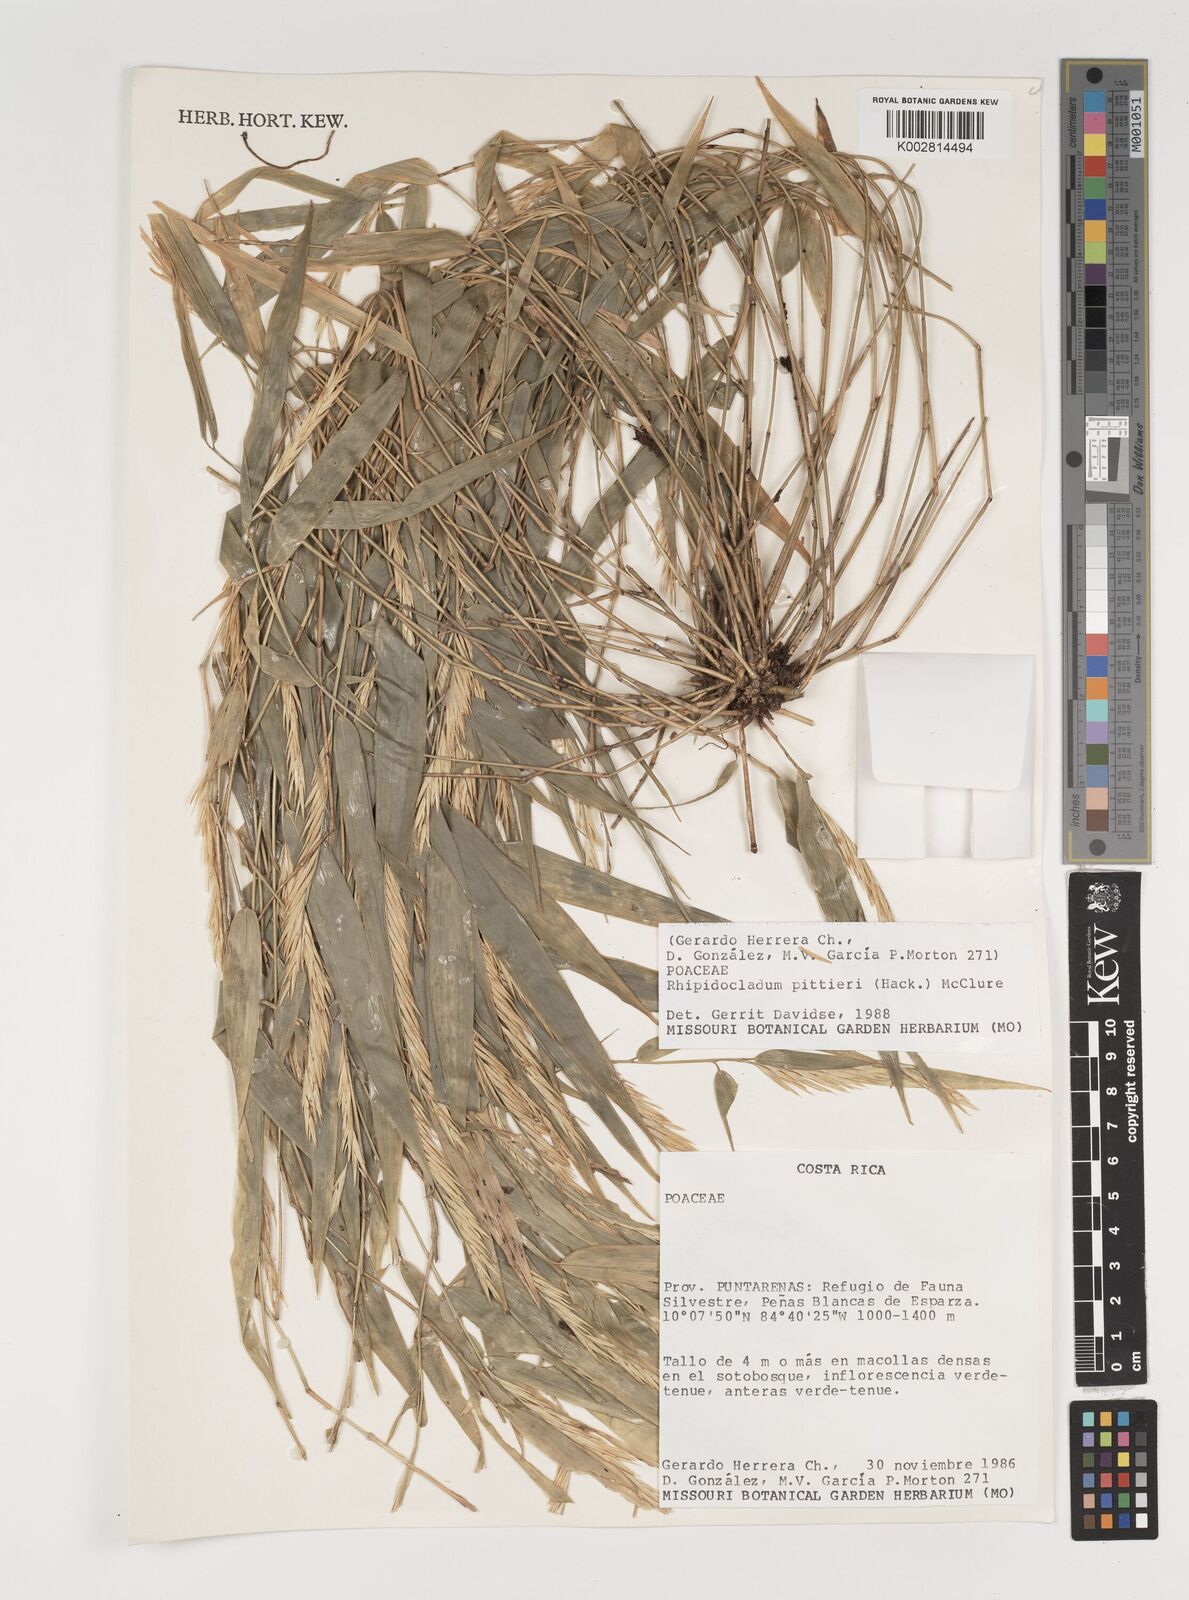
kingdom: Plantae
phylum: Tracheophyta
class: Liliopsida
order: Poales
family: Poaceae
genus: Rhipidocladum
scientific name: Rhipidocladum pittieri
